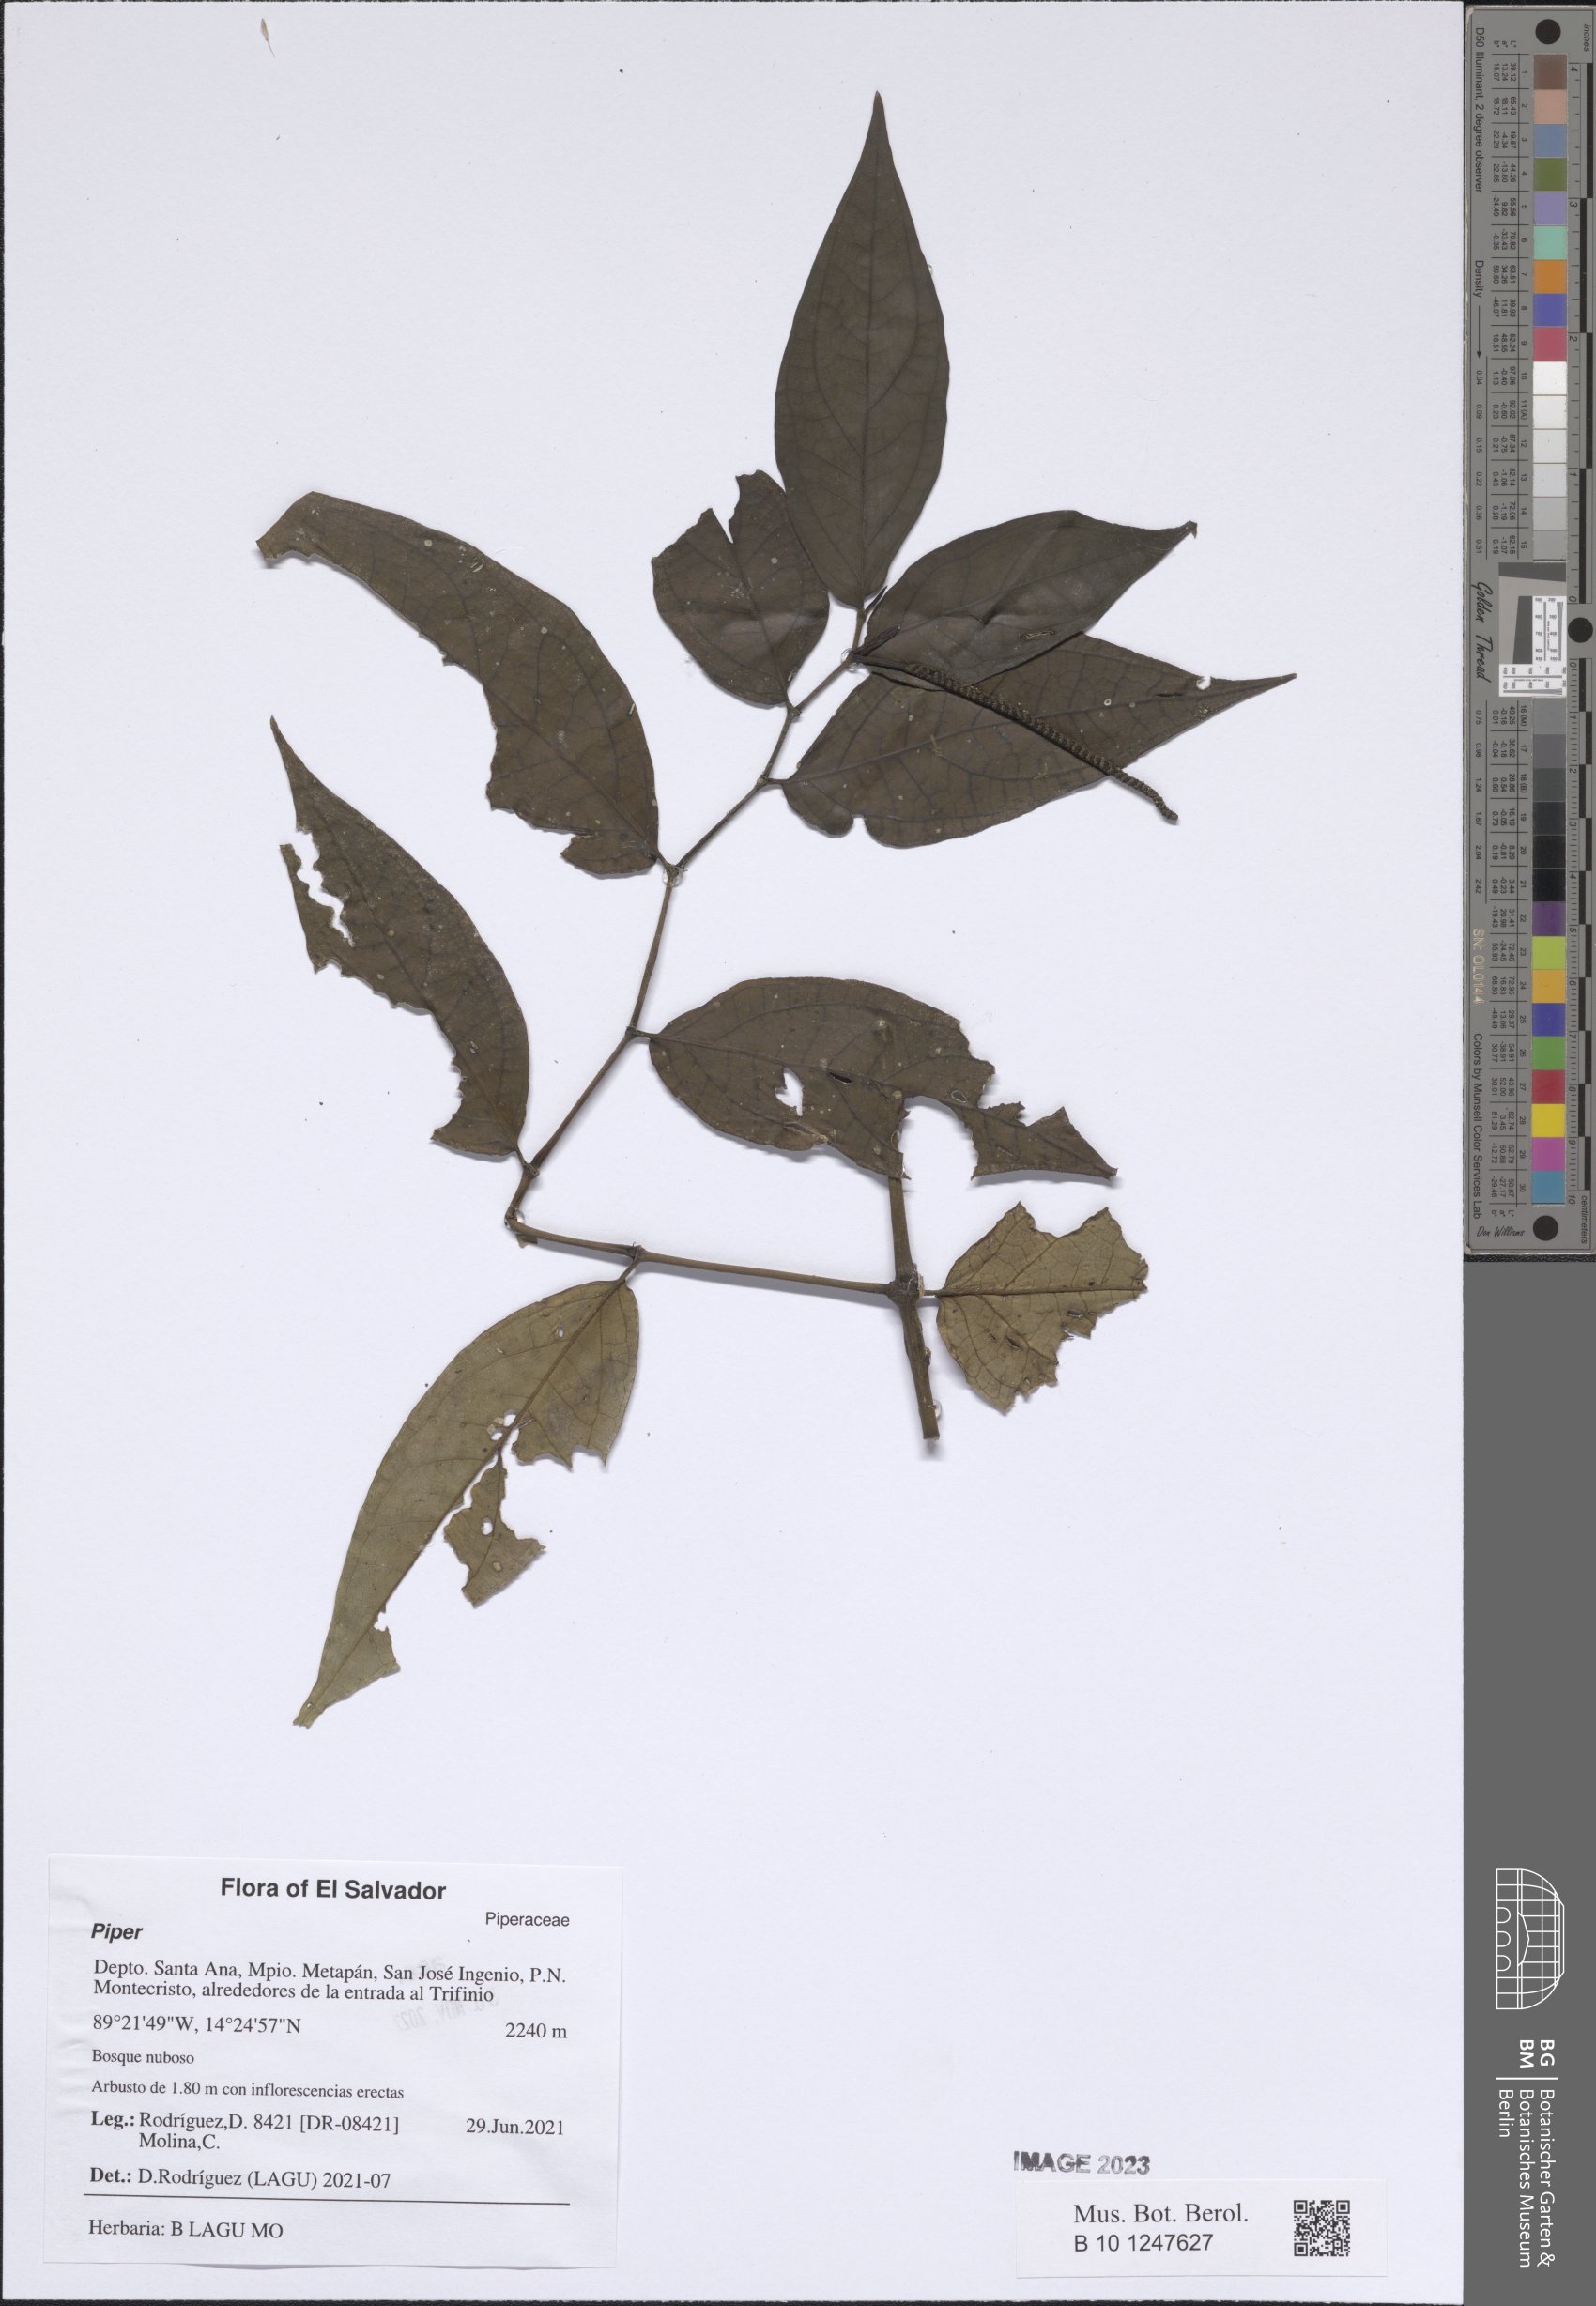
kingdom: Plantae
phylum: Tracheophyta
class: Magnoliopsida
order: Piperales
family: Piperaceae
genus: Piper
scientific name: Piper
